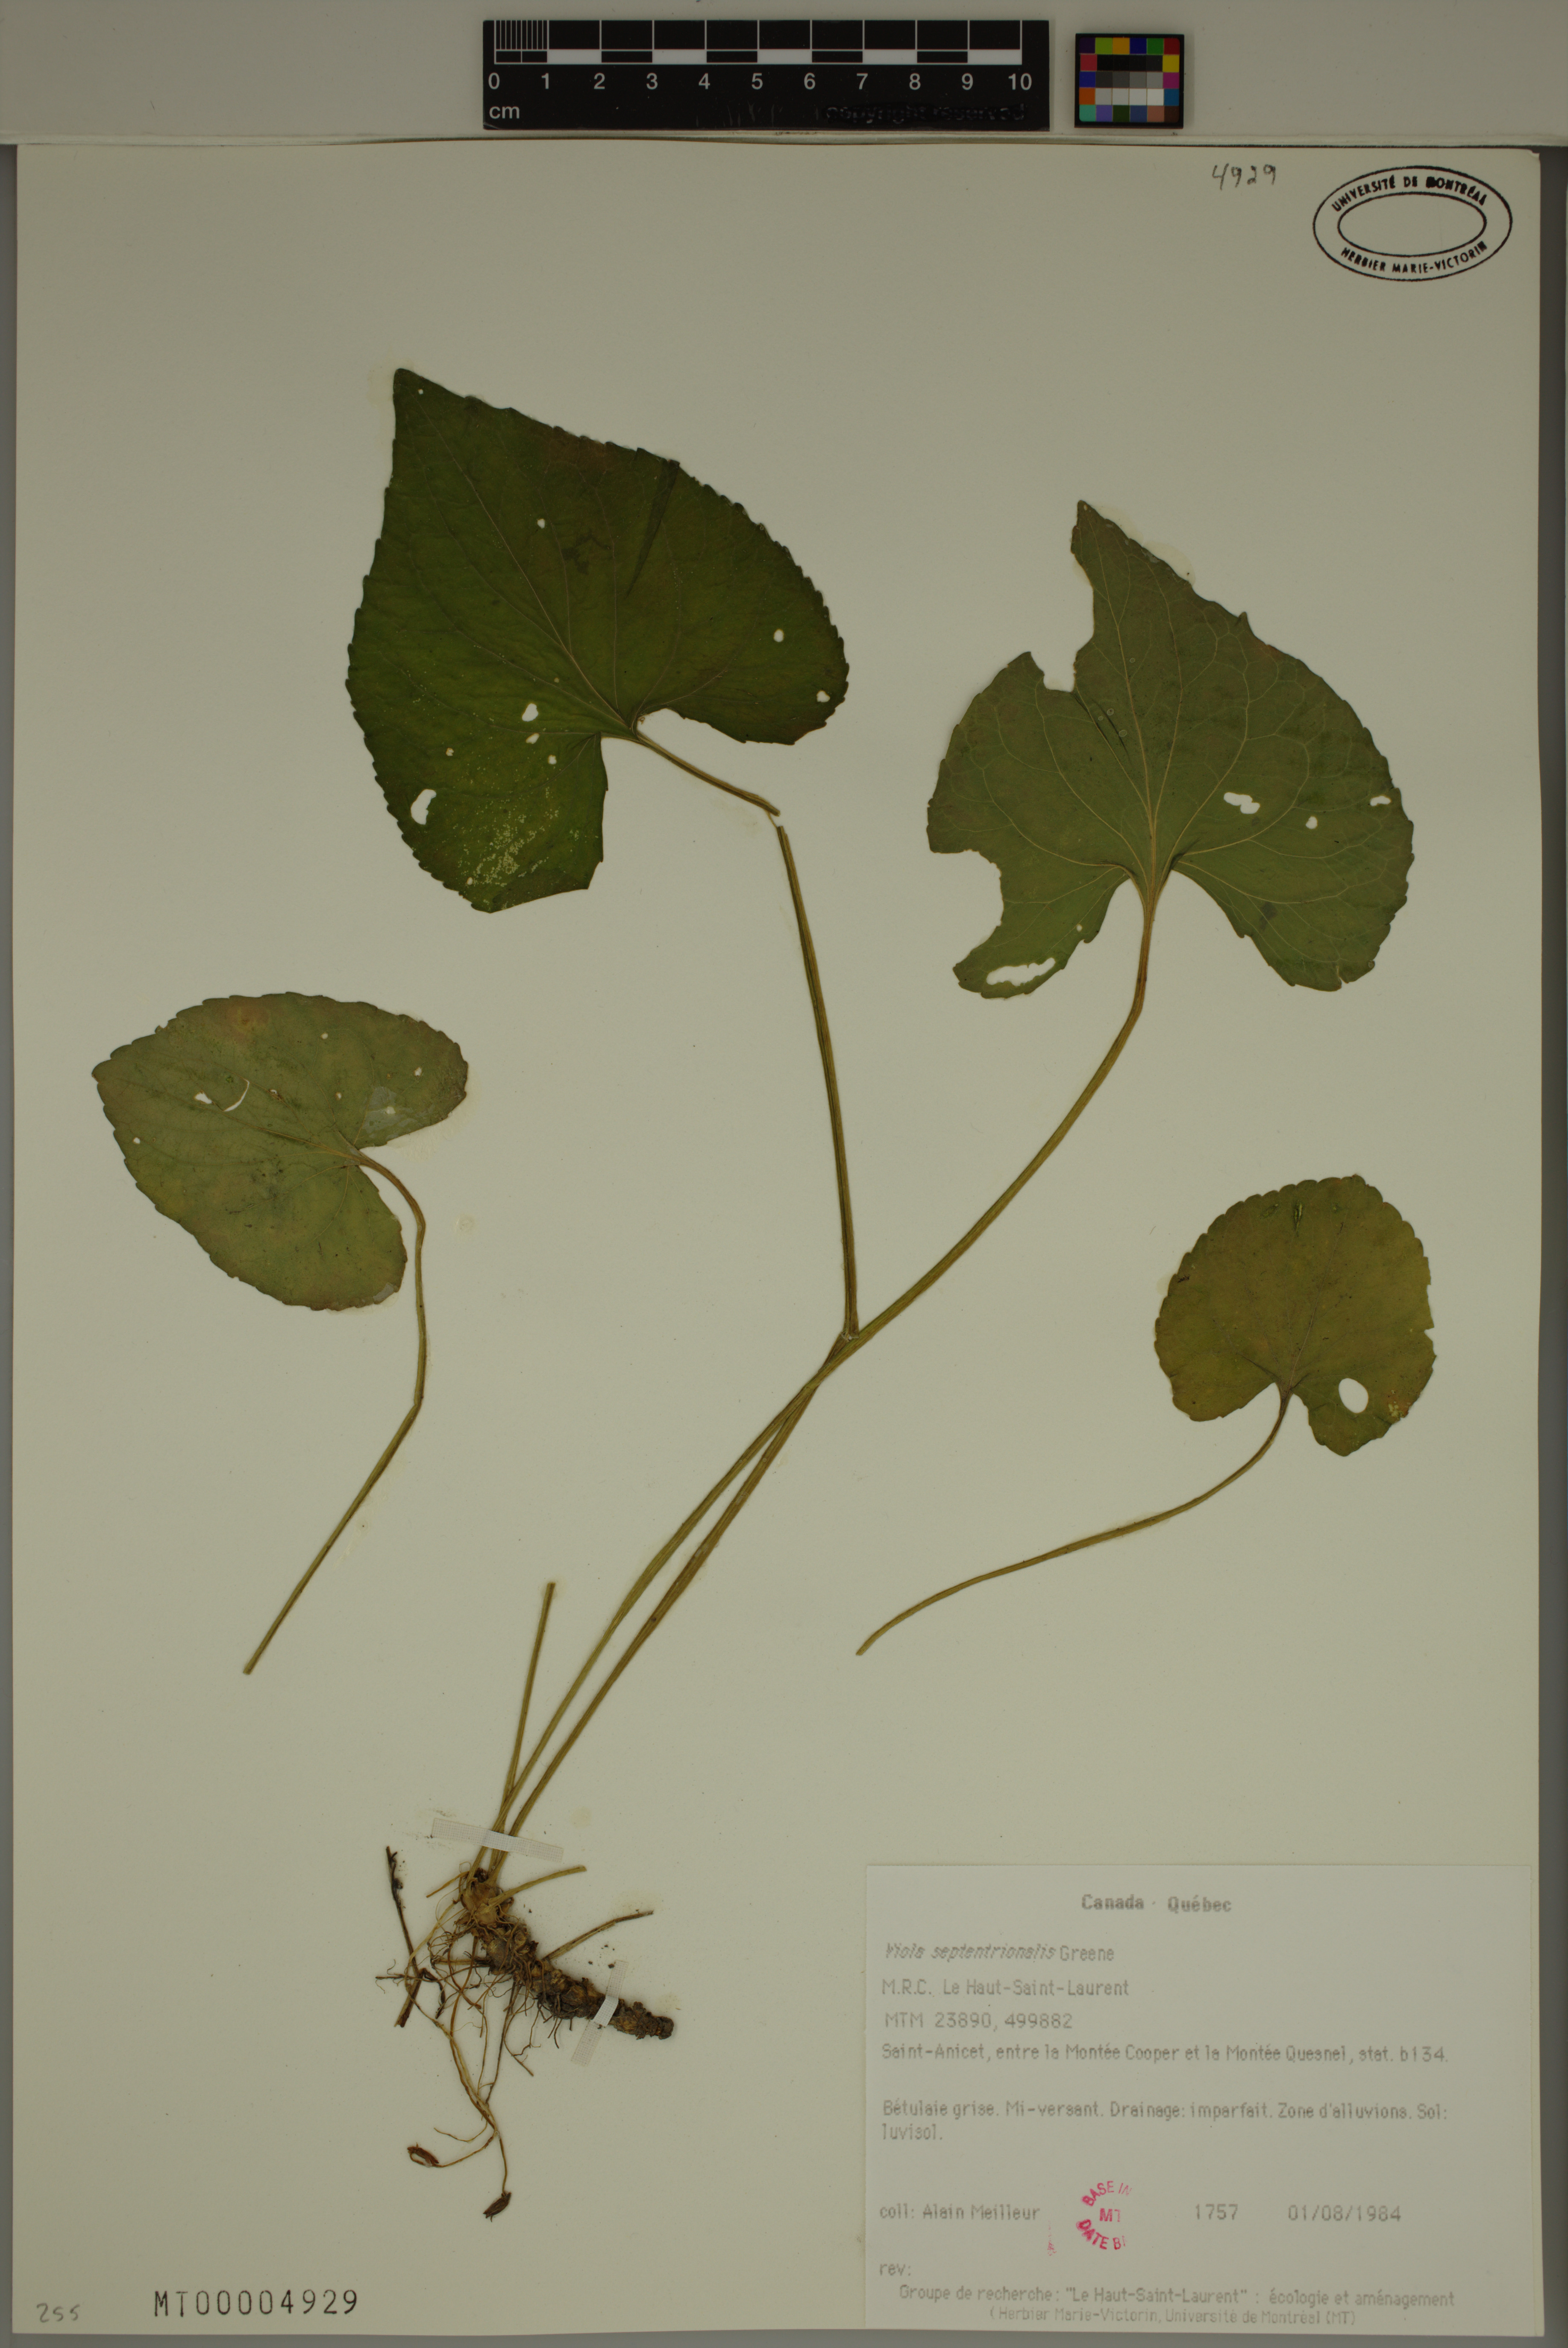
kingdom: Plantae
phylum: Tracheophyta
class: Magnoliopsida
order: Malpighiales
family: Violaceae
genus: Viola
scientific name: Viola sororia
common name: Dooryard violet
